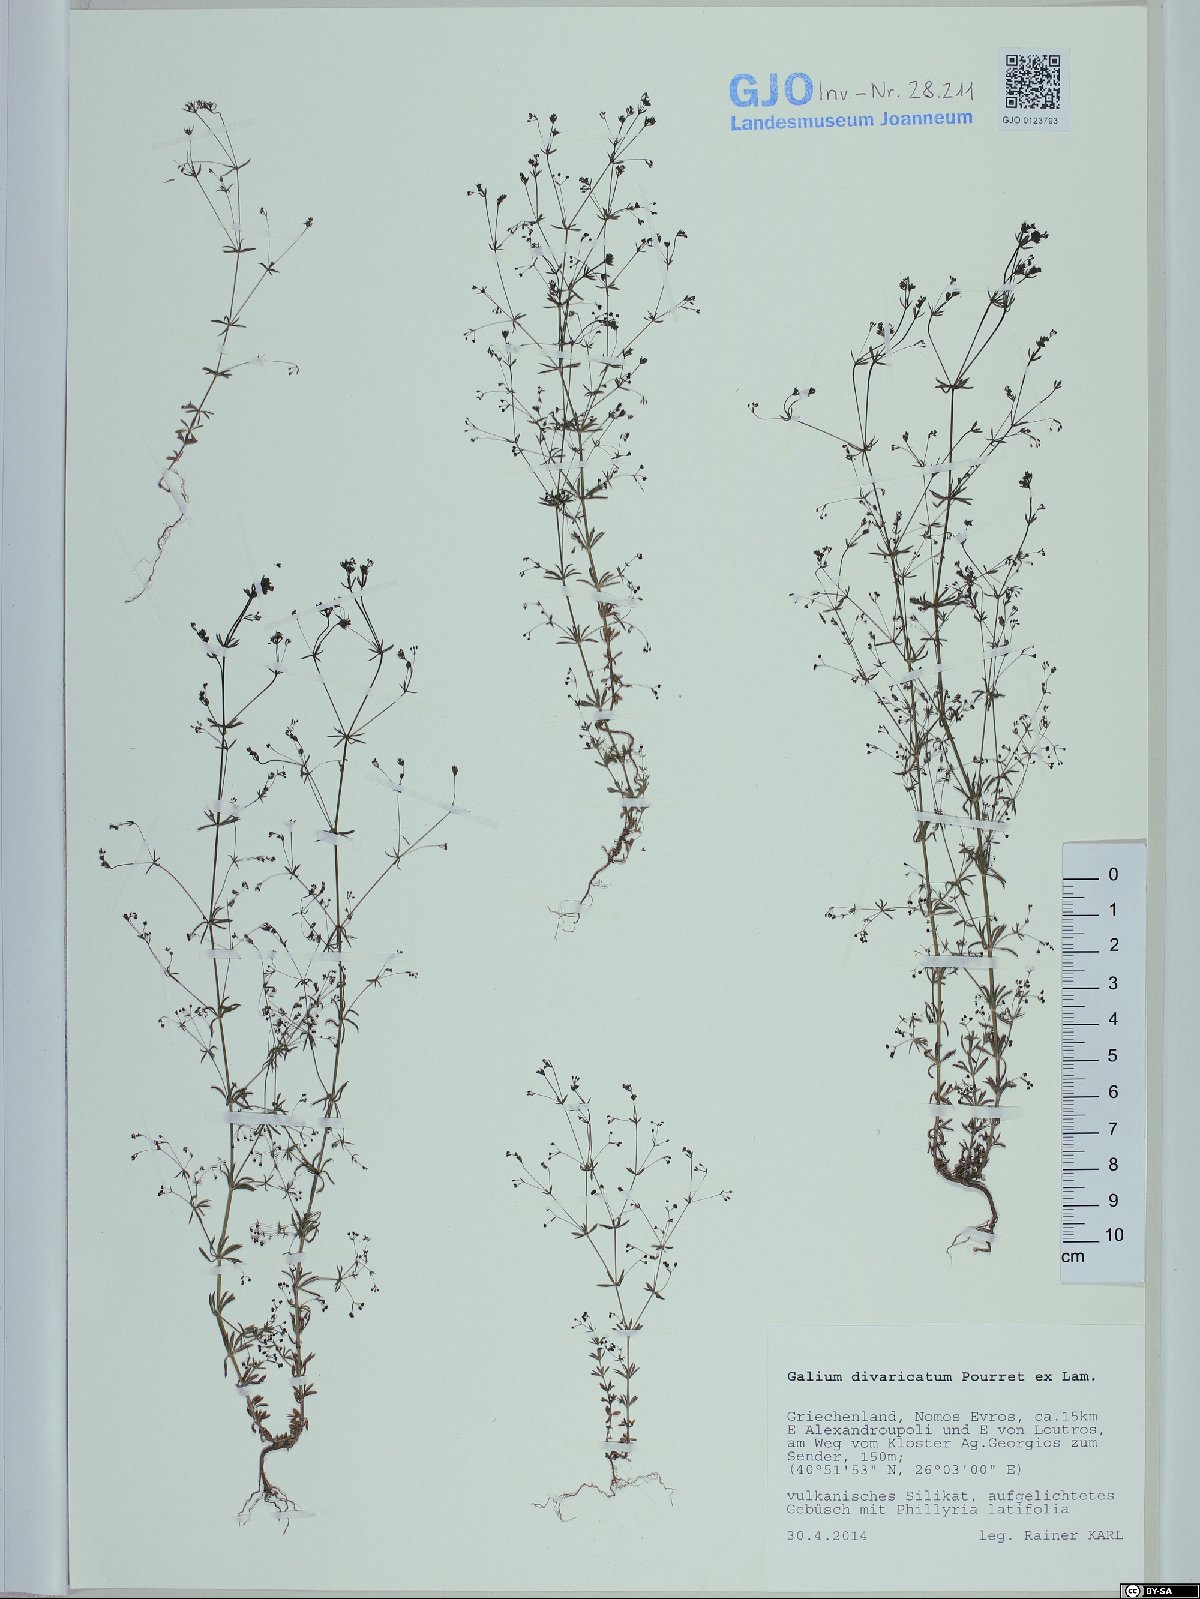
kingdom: Plantae
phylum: Tracheophyta
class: Magnoliopsida
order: Gentianales
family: Rubiaceae
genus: Galium
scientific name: Galium divaricatum
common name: Lamarck's bedstraw
